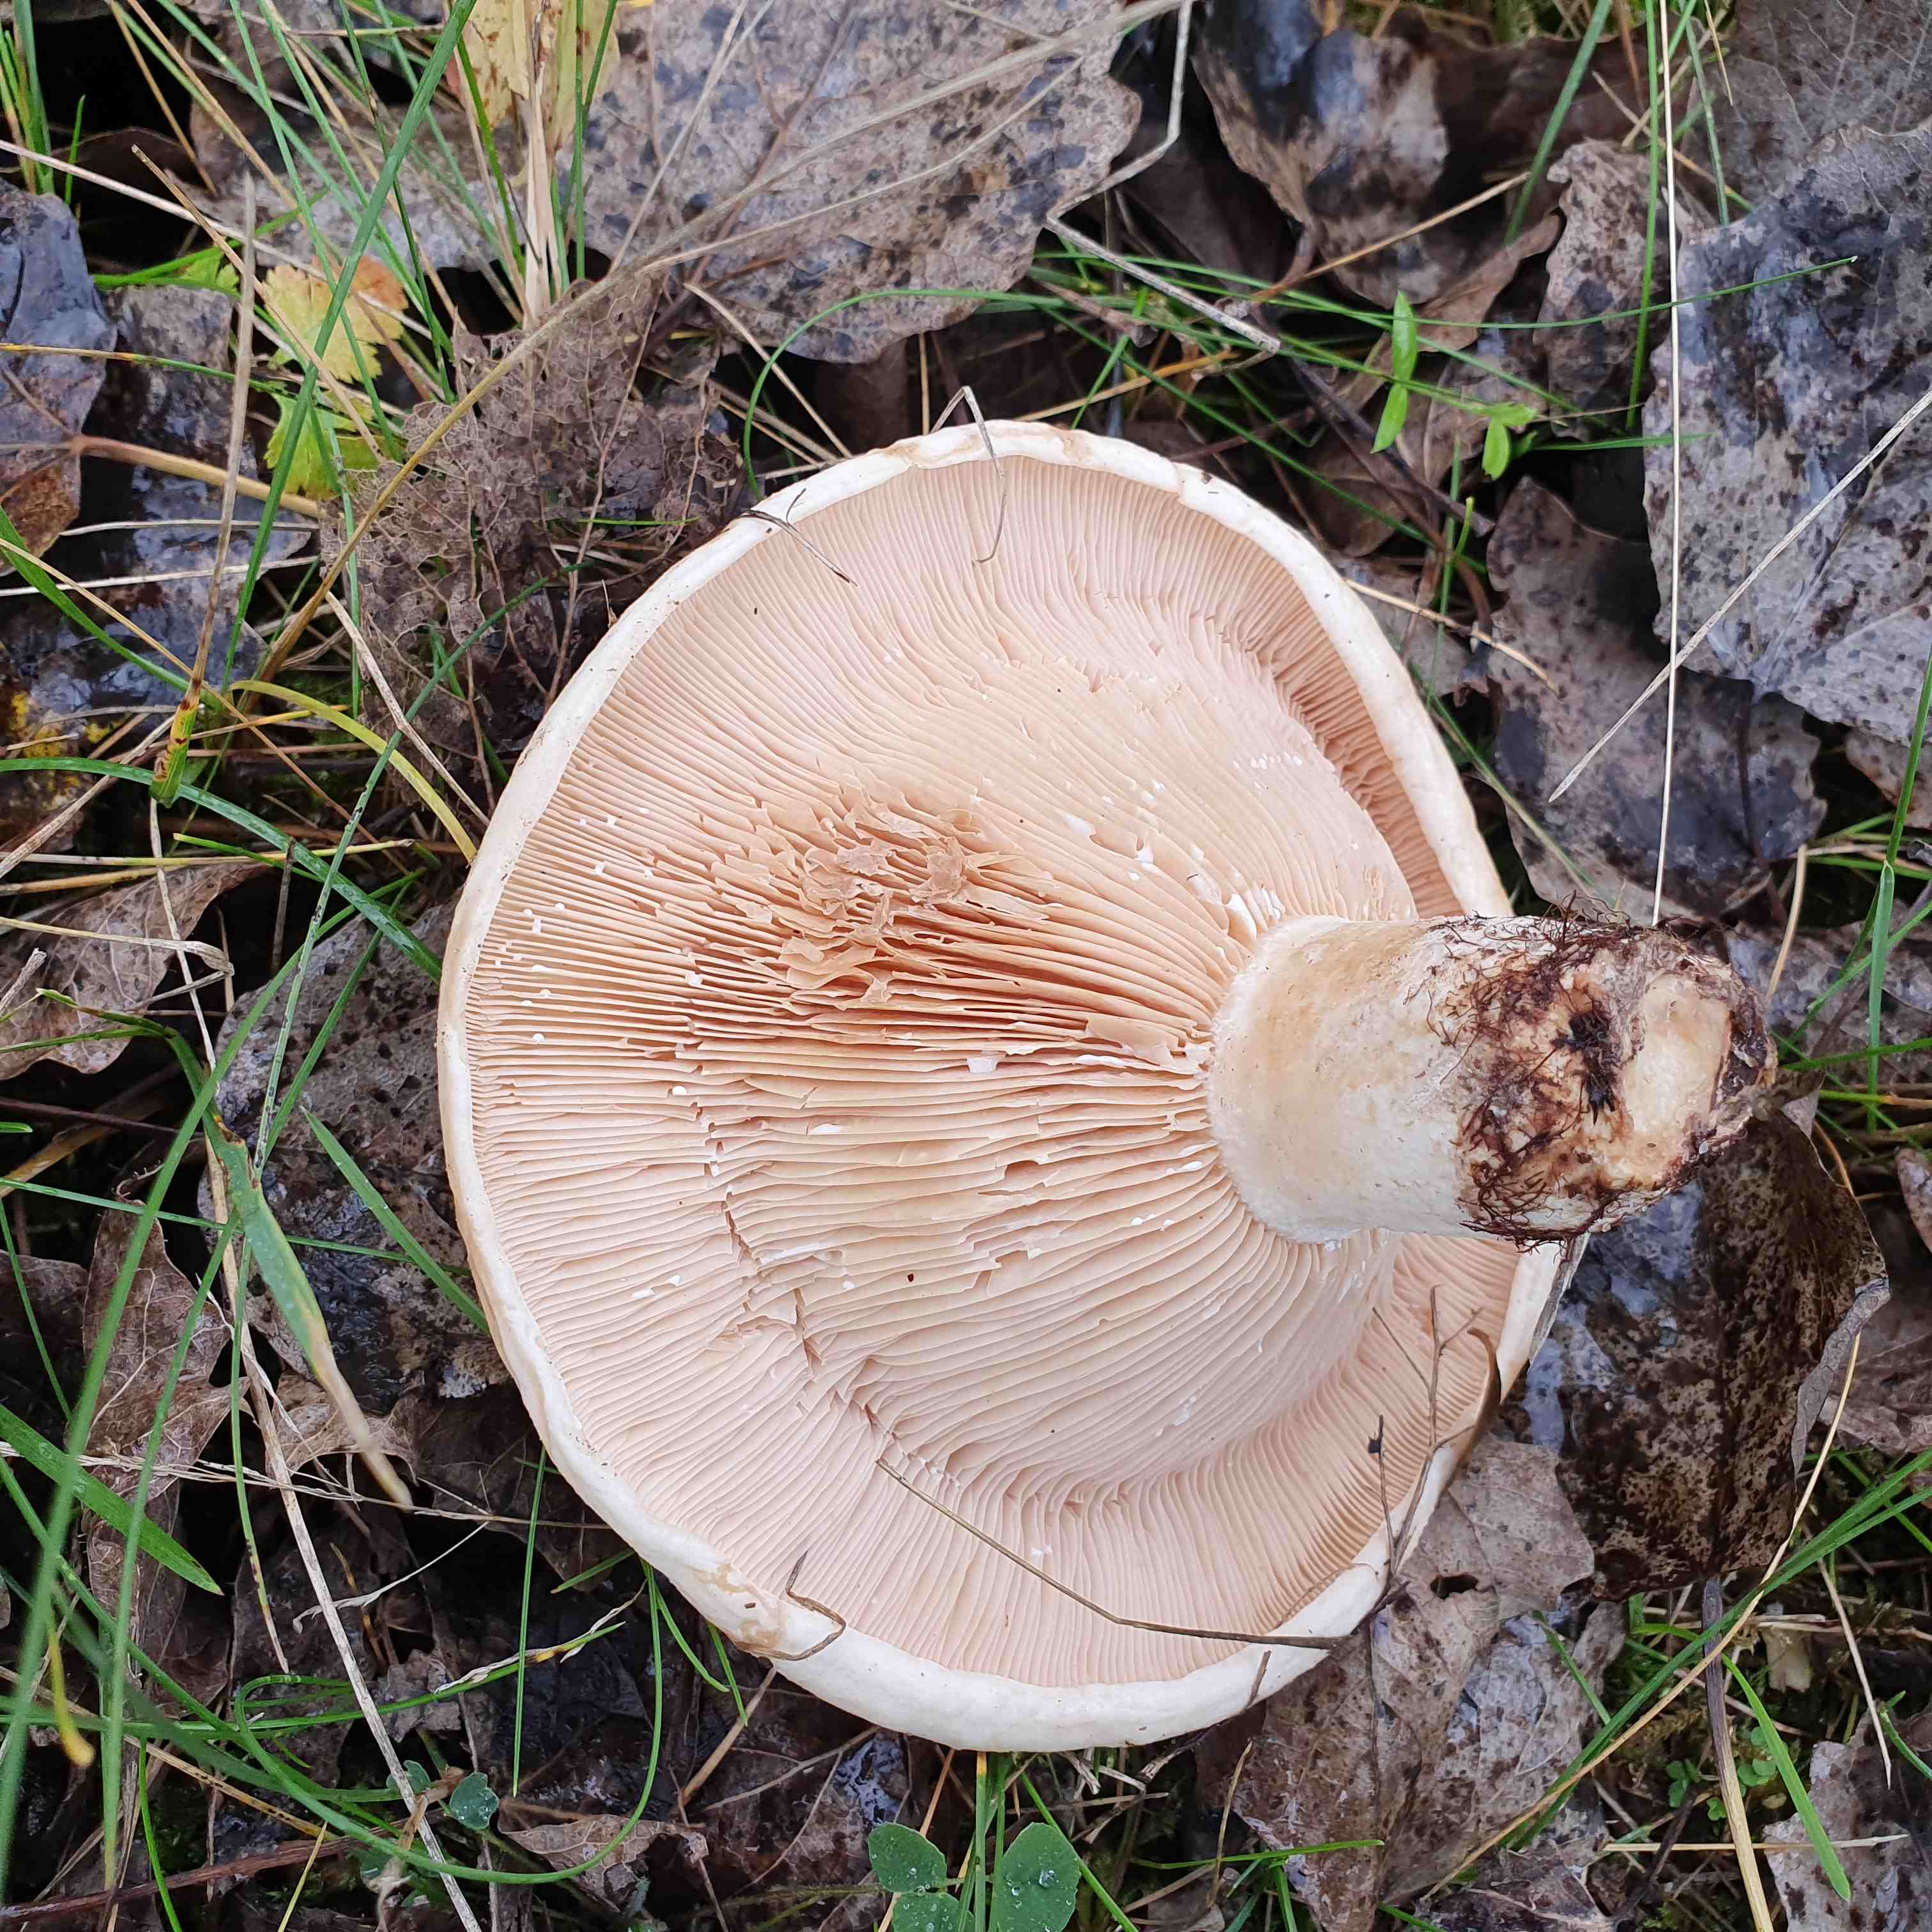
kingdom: Fungi
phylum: Basidiomycota
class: Agaricomycetes
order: Russulales
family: Russulaceae
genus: Lactarius
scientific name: Lactarius controversus
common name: rosabladet mælkehat
